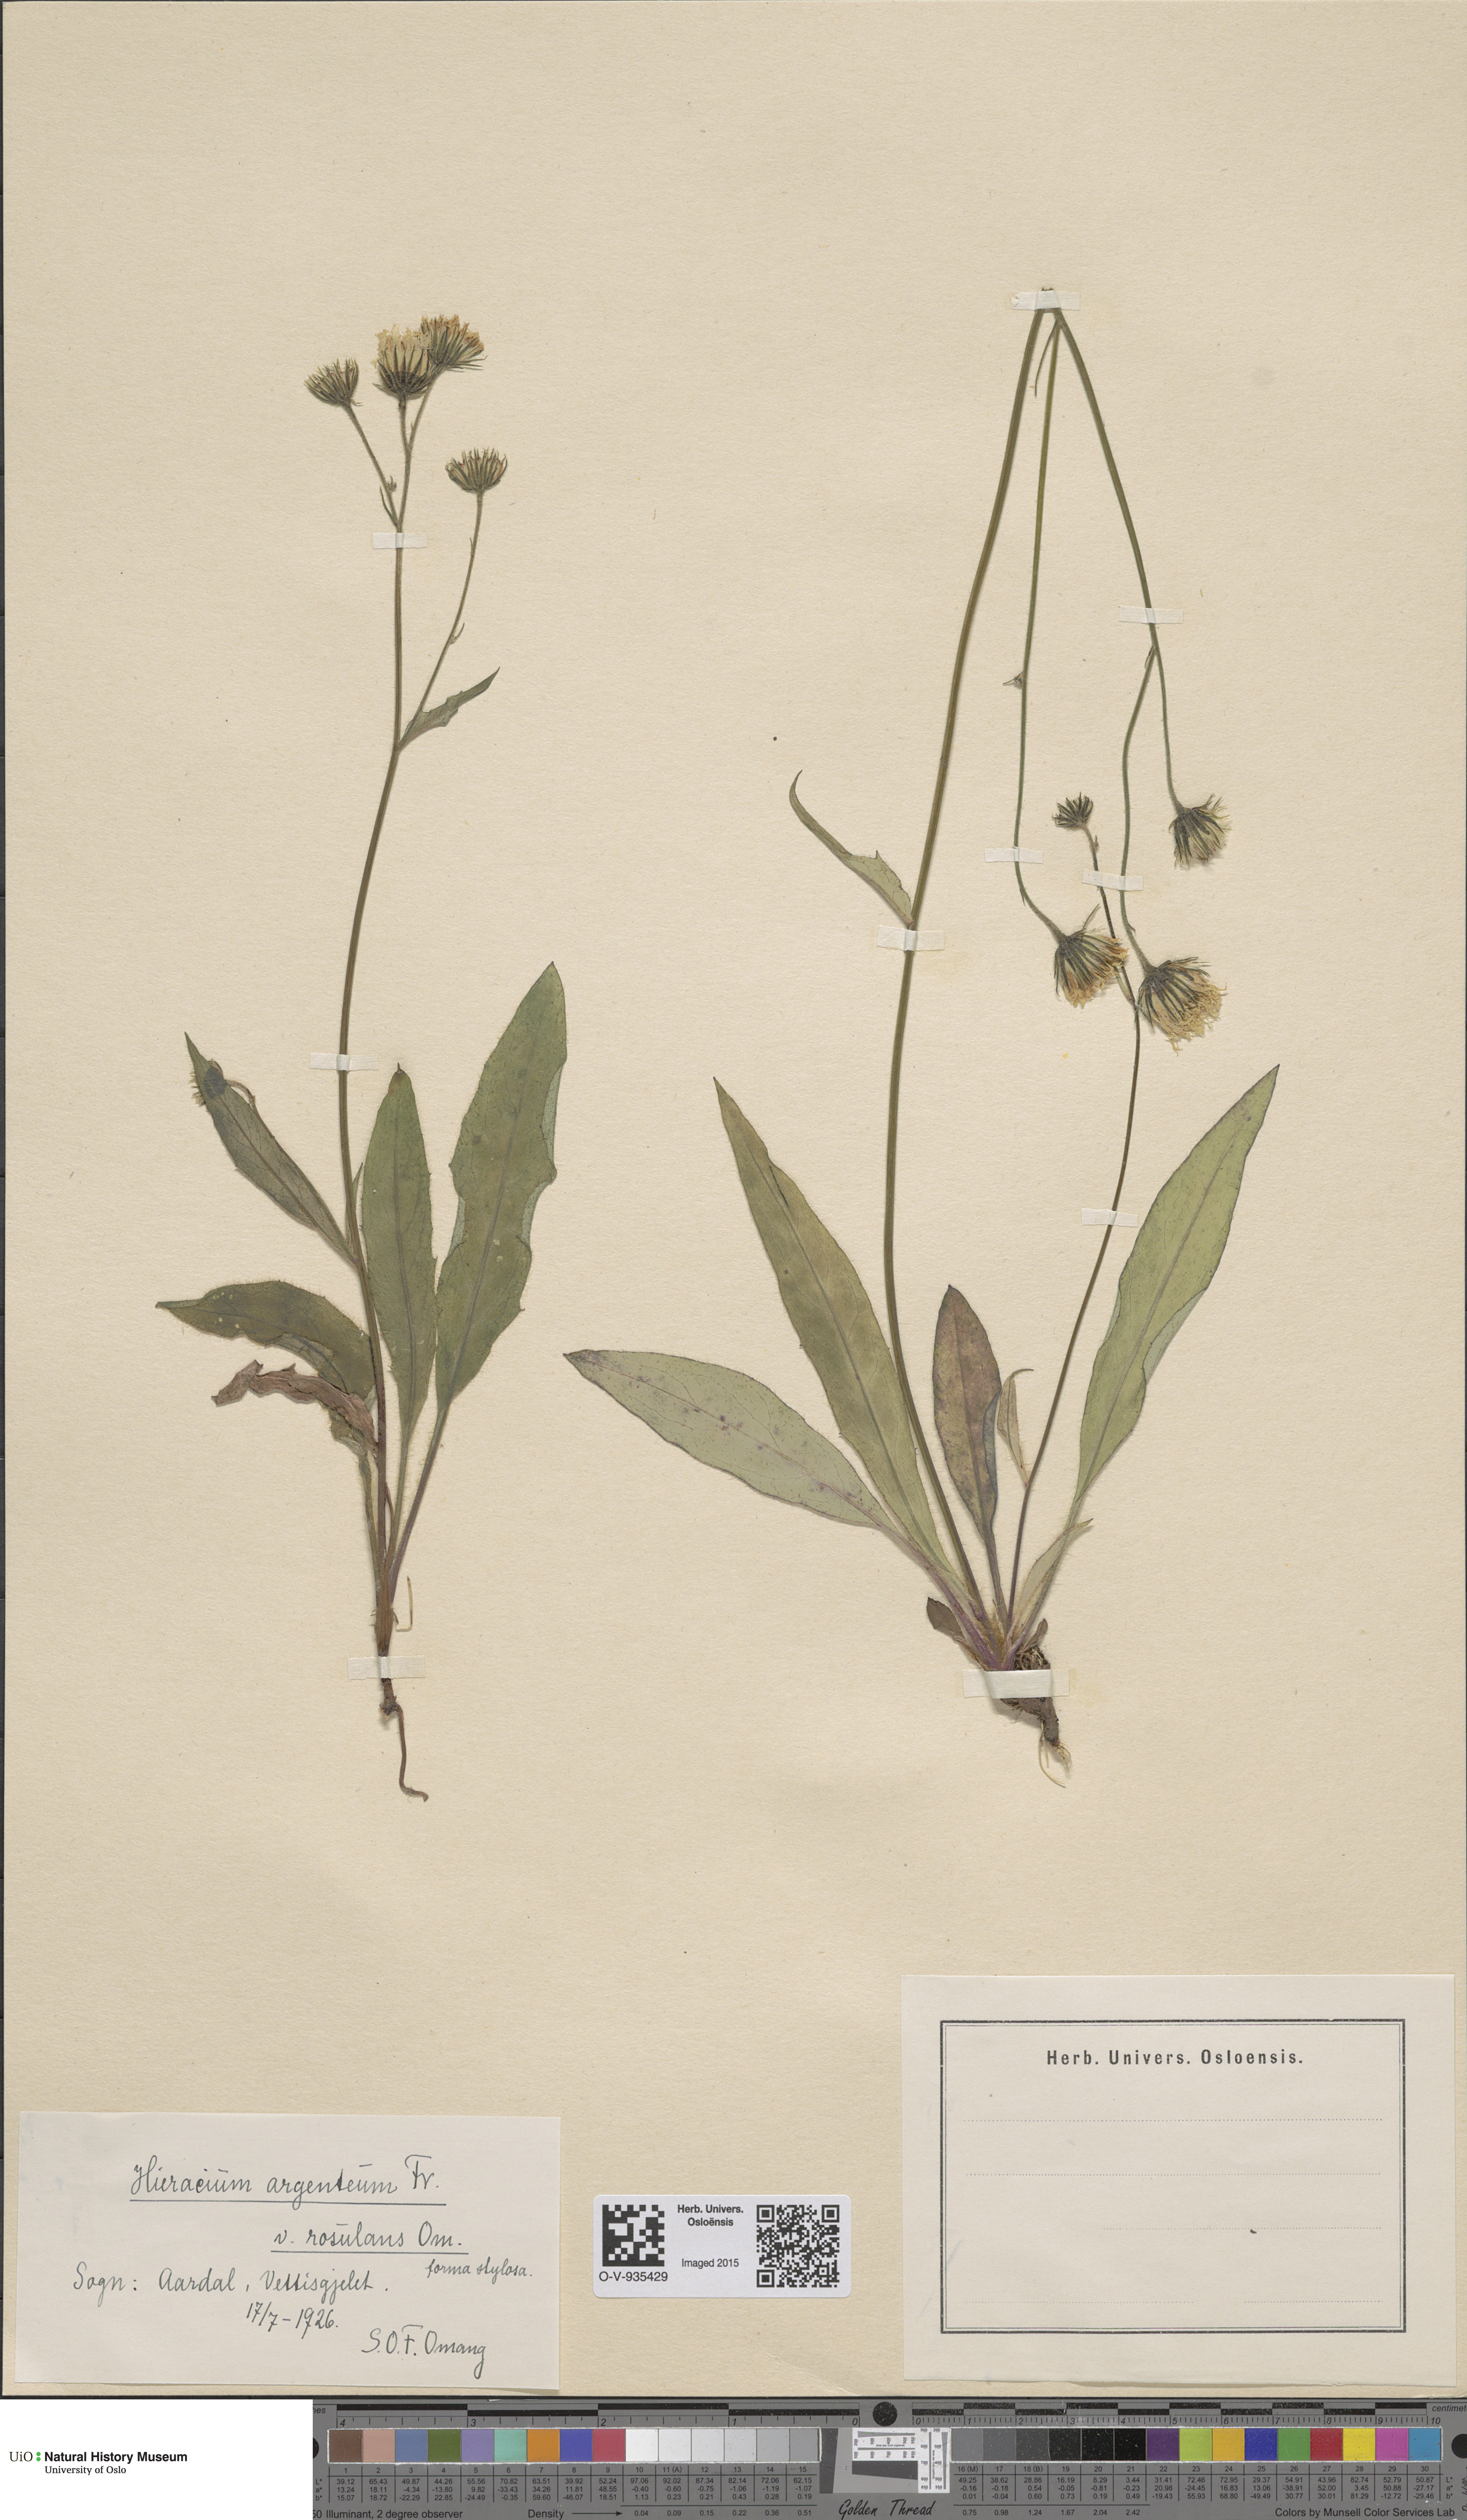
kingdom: Plantae
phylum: Tracheophyta
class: Magnoliopsida
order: Asterales
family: Asteraceae
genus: Hieracium
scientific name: Hieracium argenteum
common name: Silver hawkweed
